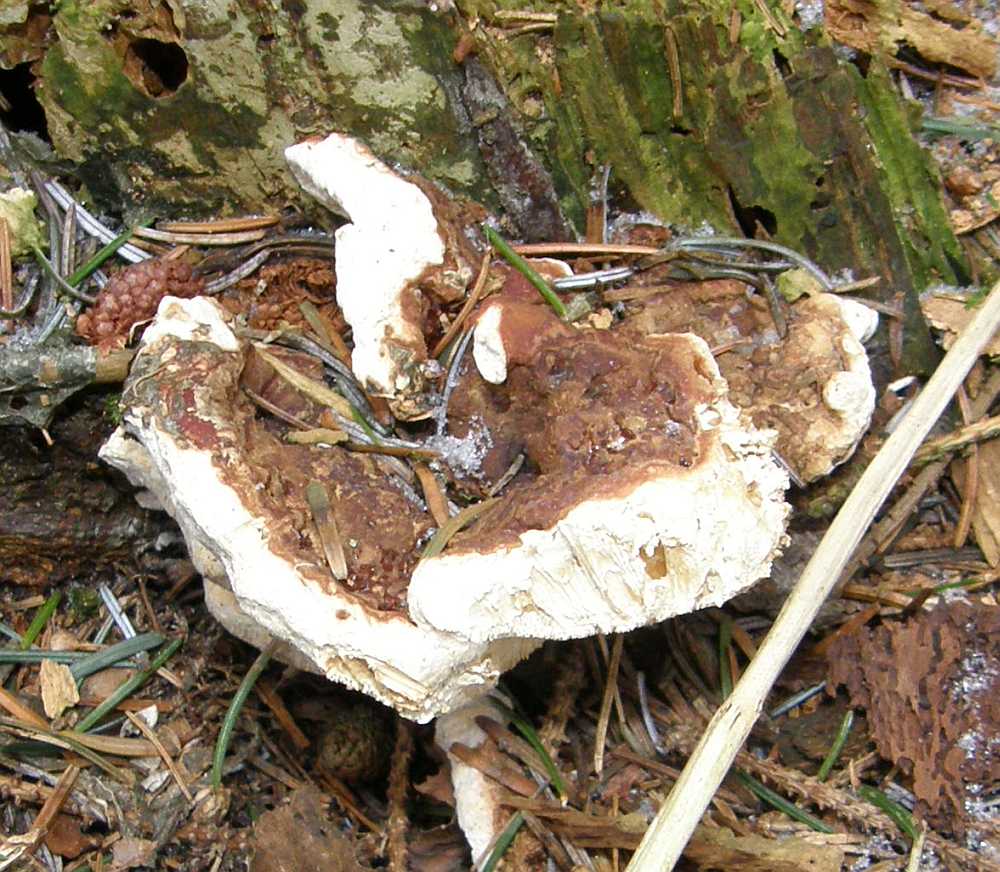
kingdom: Fungi
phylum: Basidiomycota
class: Agaricomycetes
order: Russulales
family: Bondarzewiaceae
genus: Heterobasidion
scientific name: Heterobasidion annosum
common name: almindelig rodfordærver
